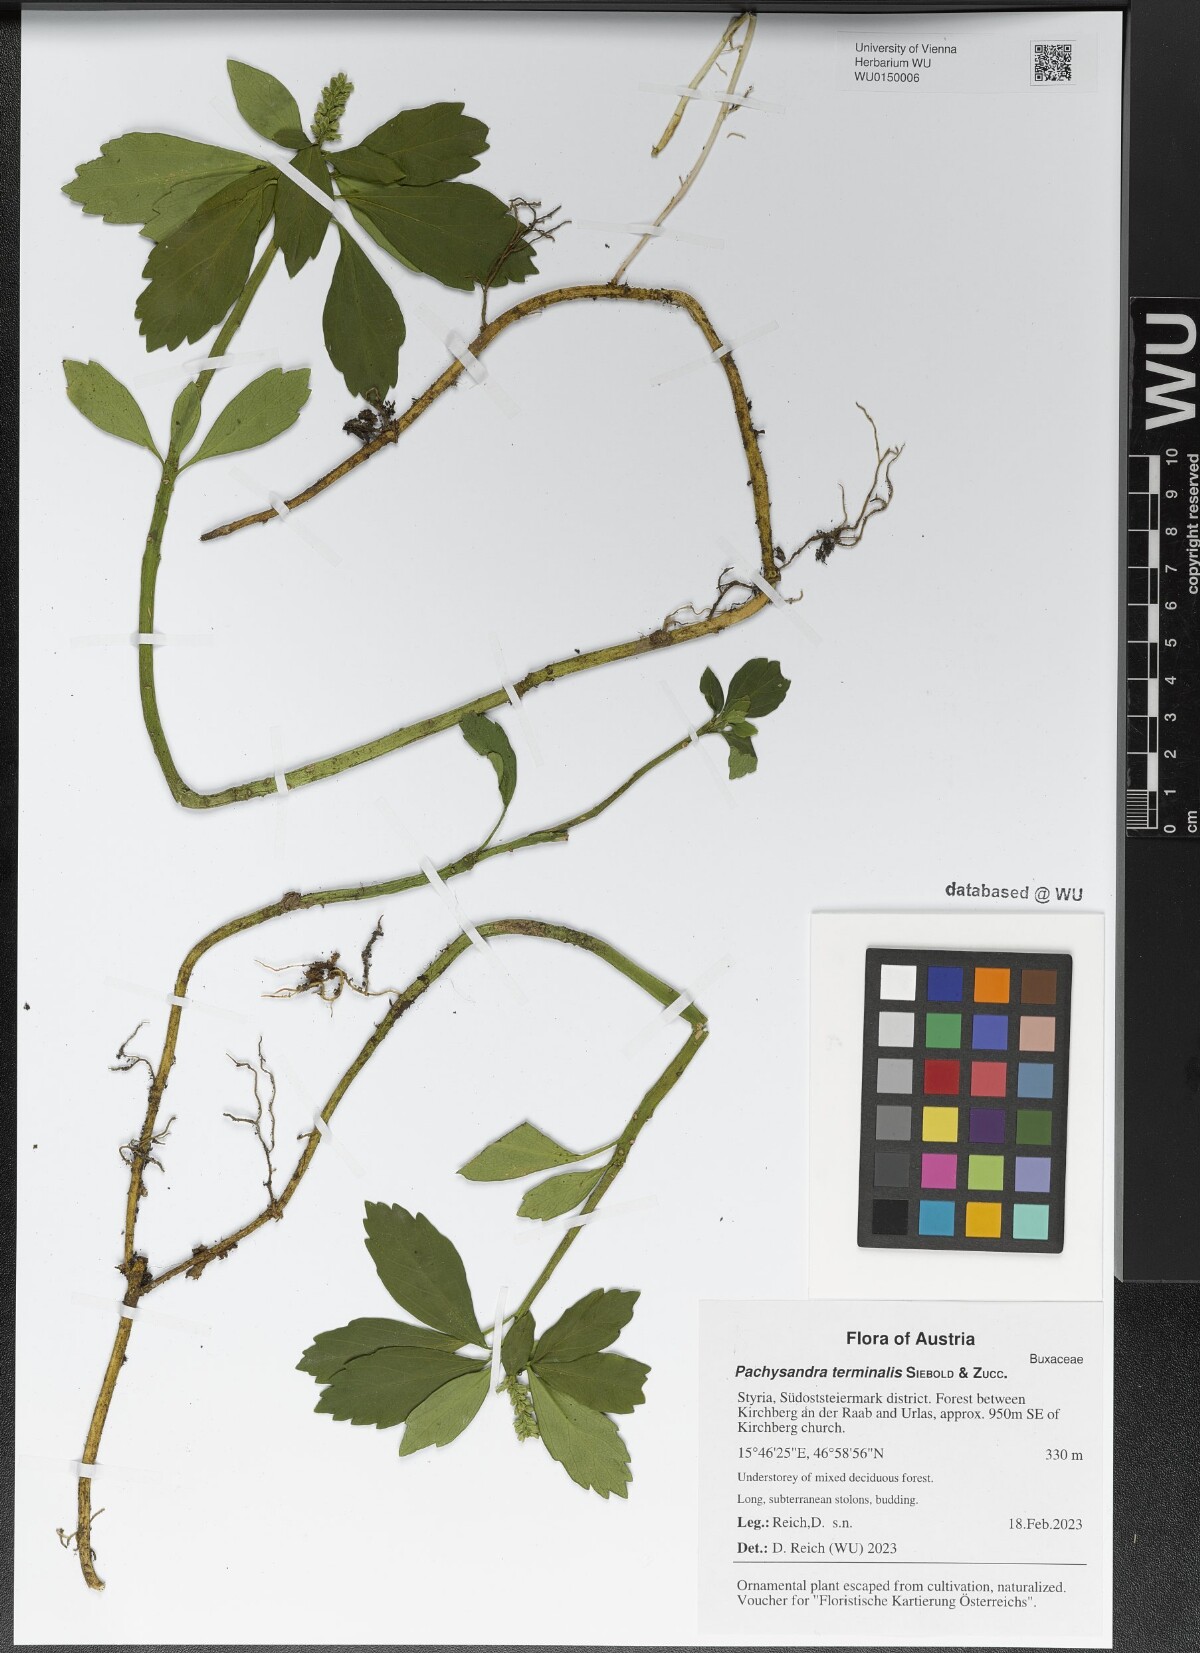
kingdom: Plantae
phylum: Tracheophyta
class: Magnoliopsida
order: Buxales
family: Buxaceae
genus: Pachysandra
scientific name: Pachysandra terminalis
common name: Japanese pachysandra
